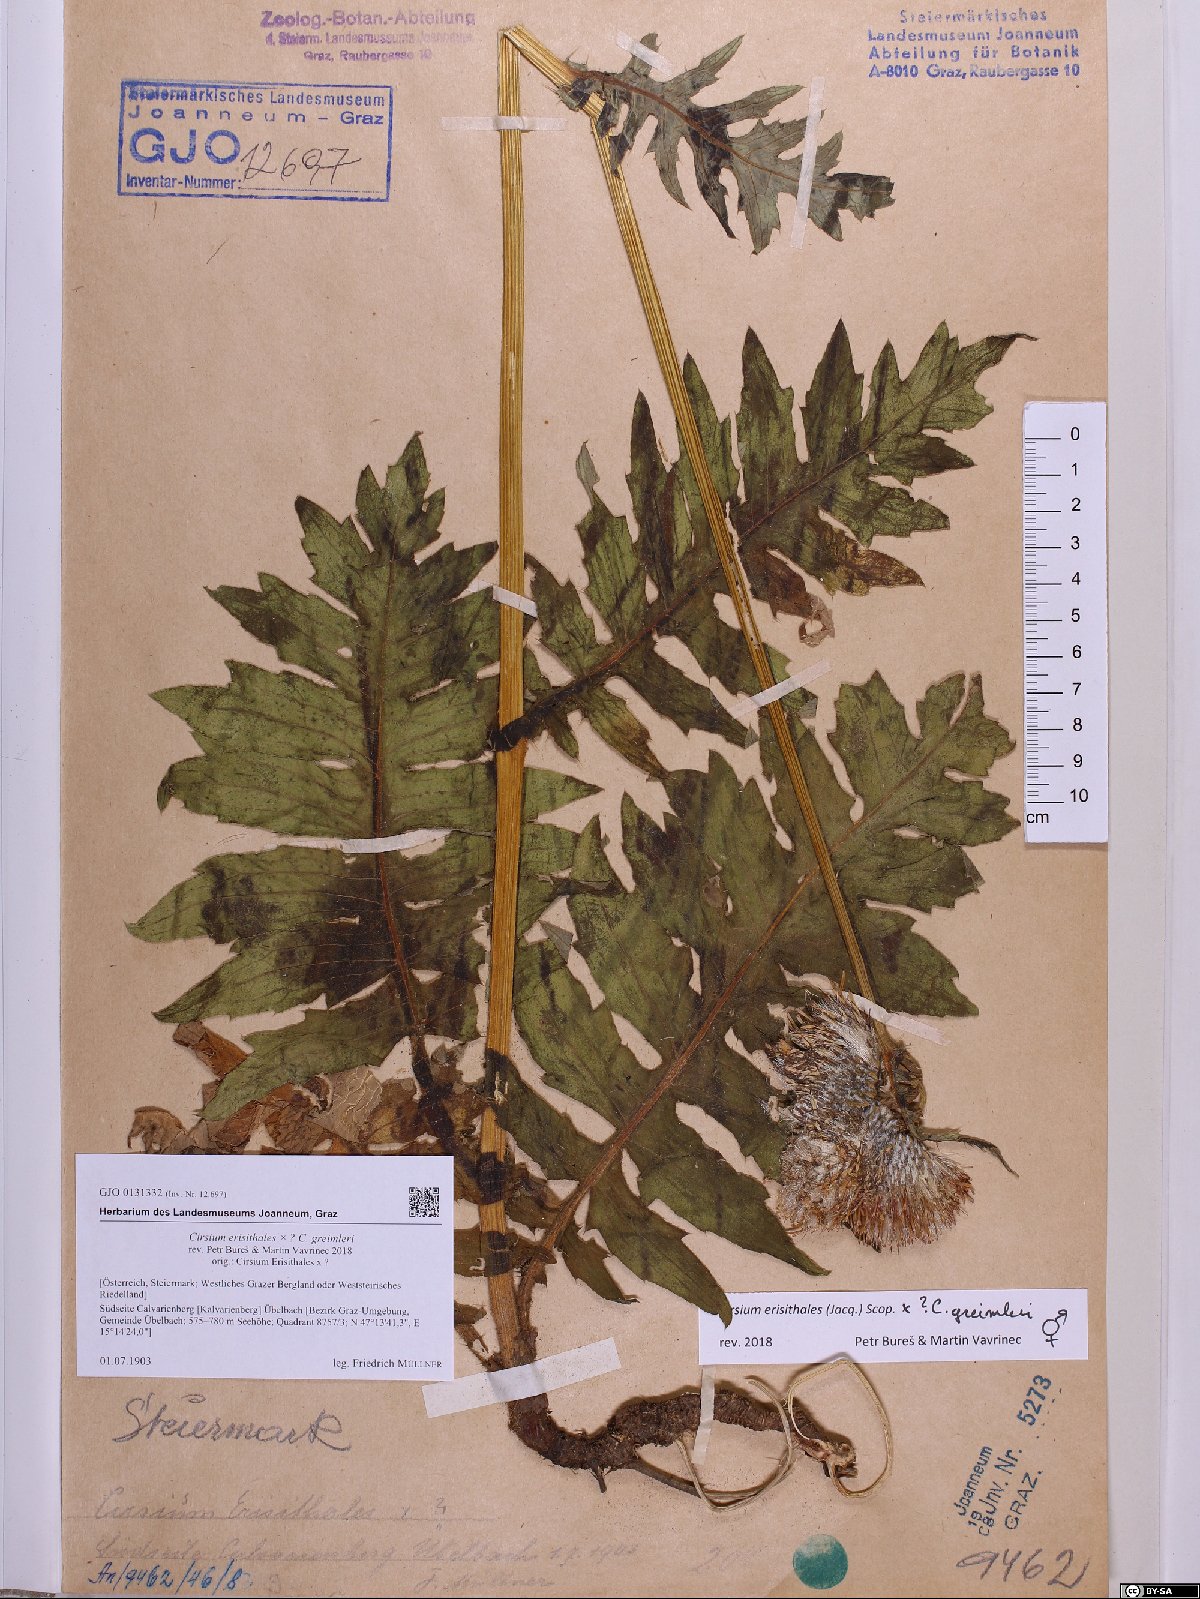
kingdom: Plantae
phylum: Tracheophyta
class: Magnoliopsida
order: Asterales
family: Asteraceae
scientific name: Asteraceae
